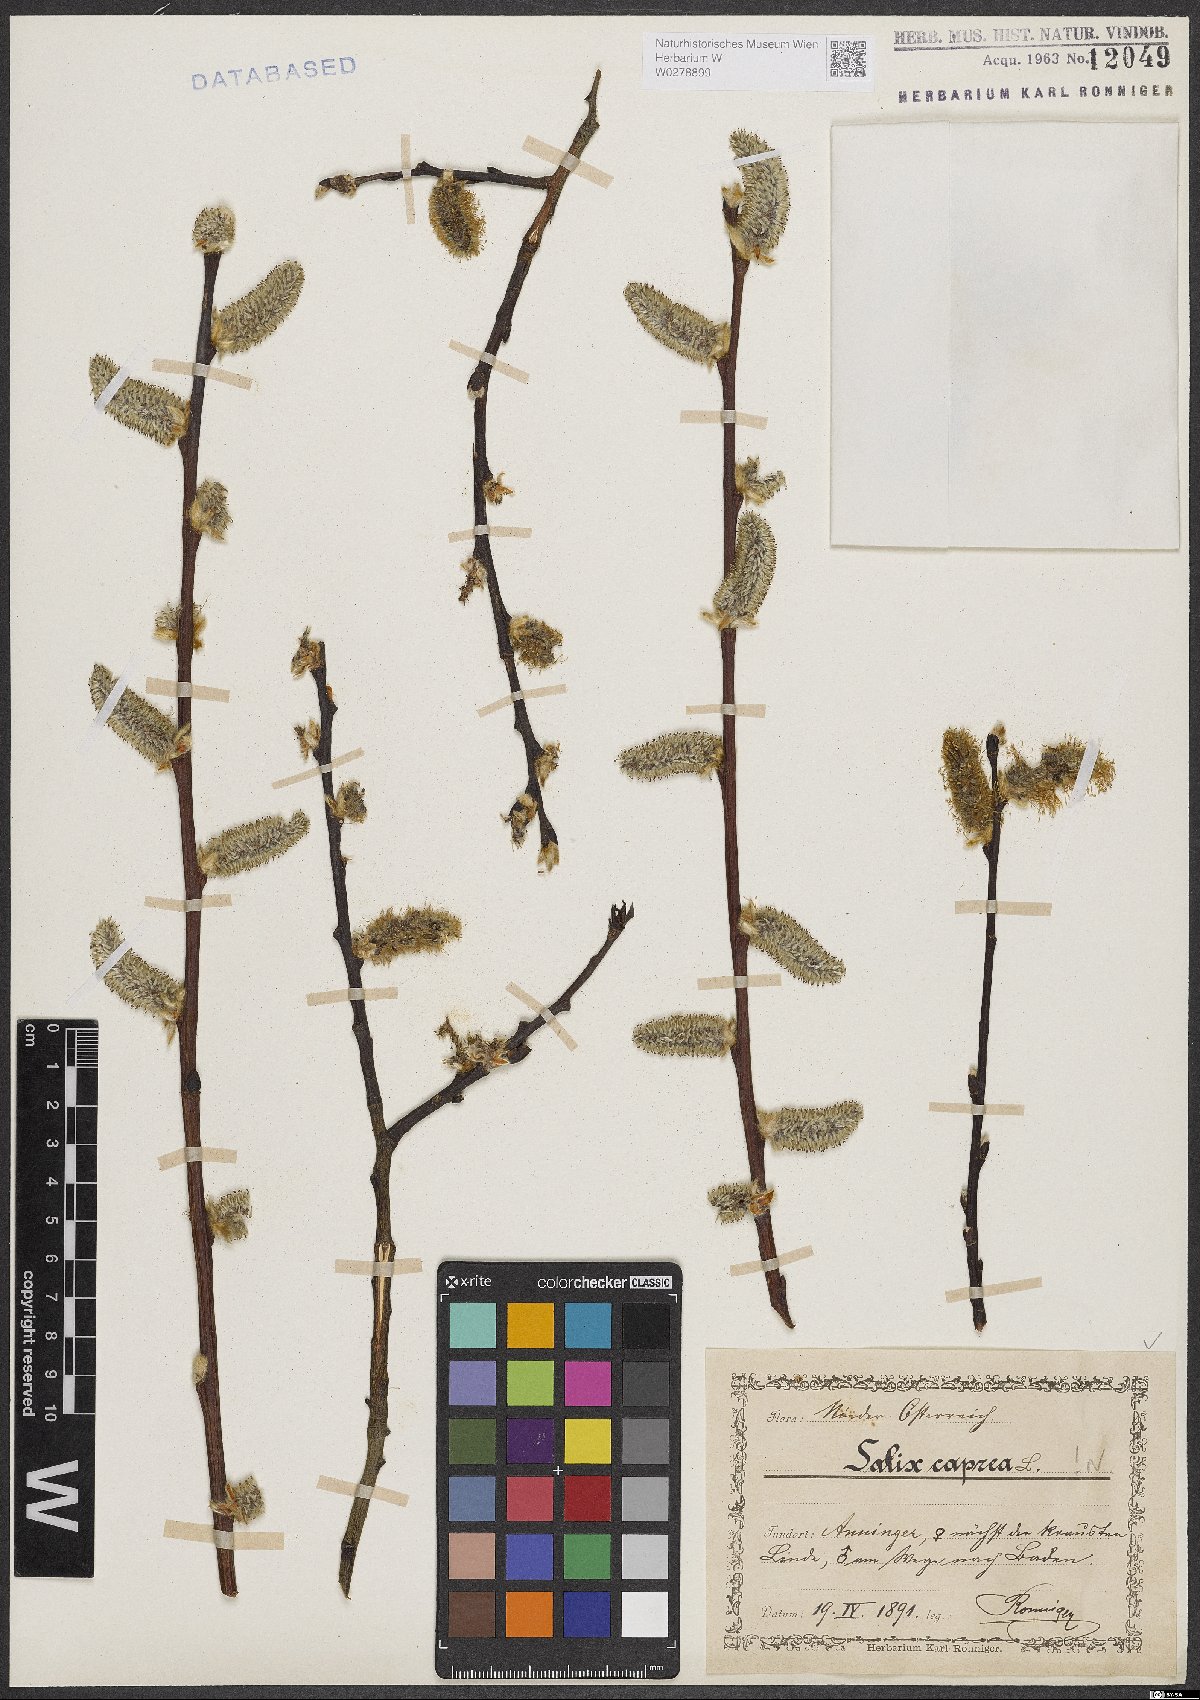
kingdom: Plantae
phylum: Tracheophyta
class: Magnoliopsida
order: Malpighiales
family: Salicaceae
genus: Salix
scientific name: Salix caprea
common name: Goat willow
